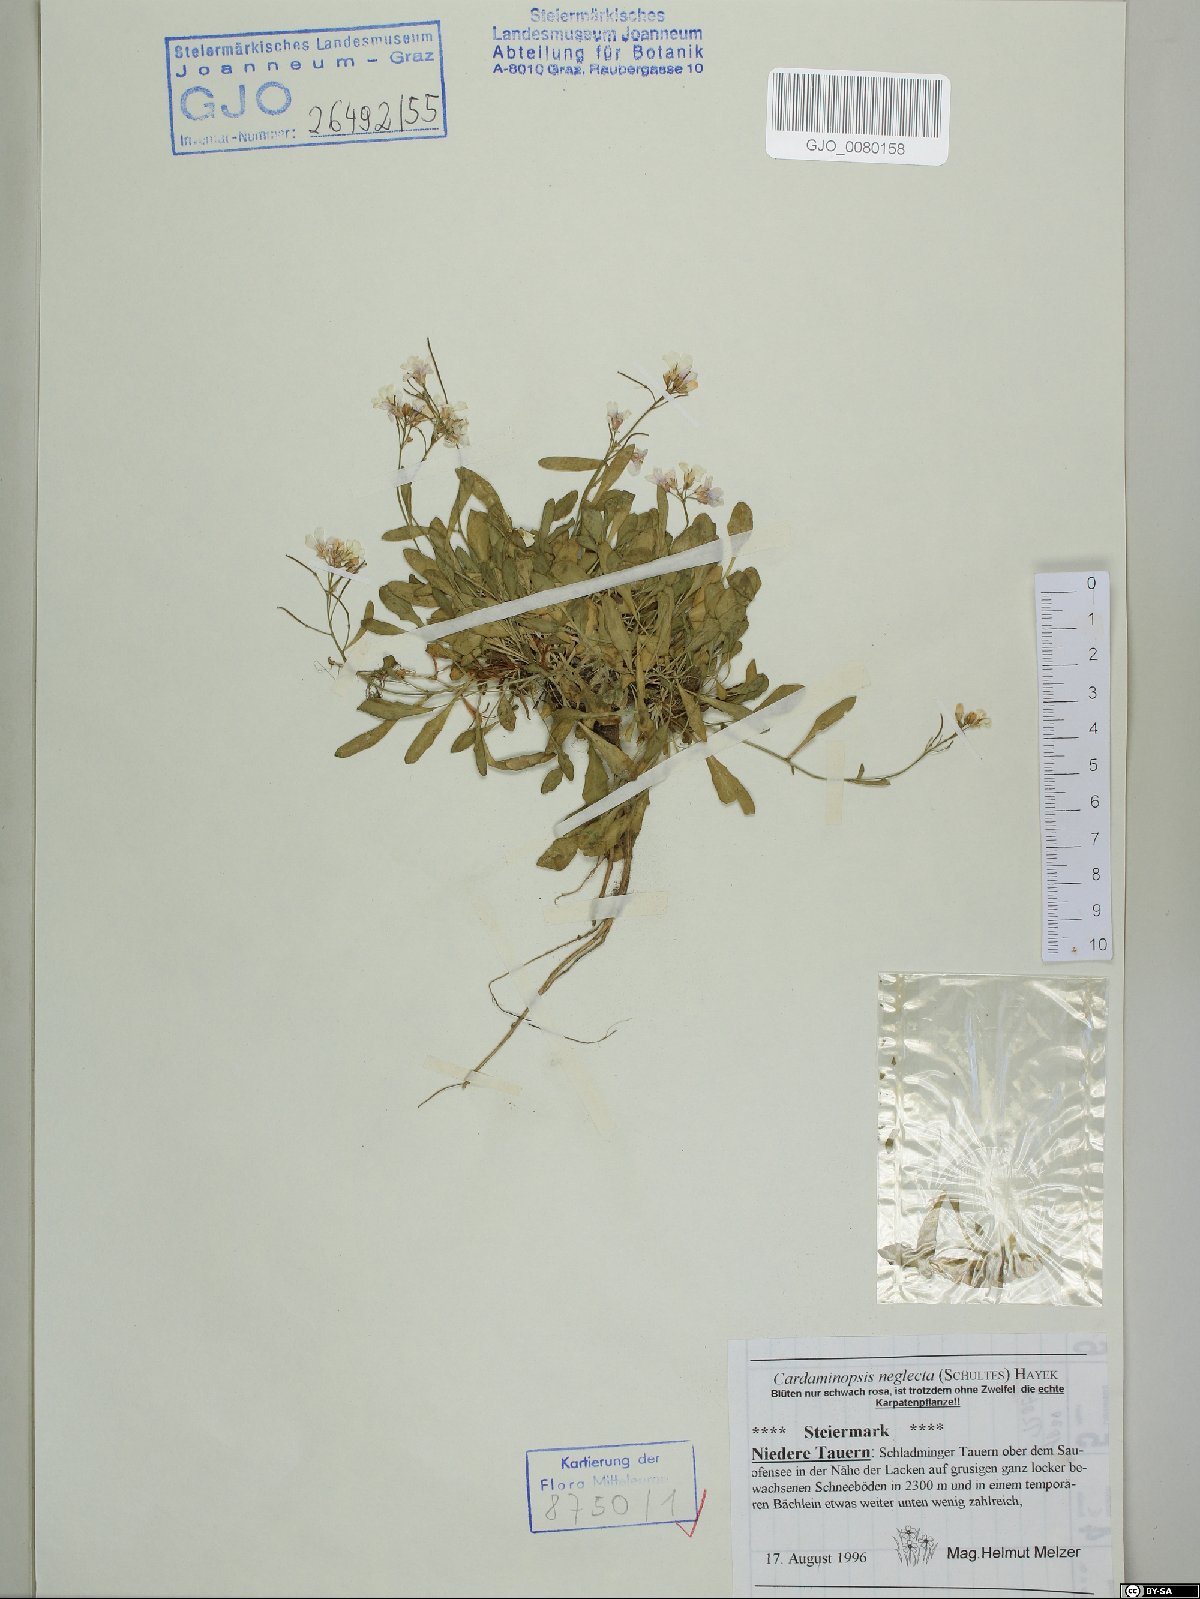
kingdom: Plantae
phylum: Tracheophyta
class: Magnoliopsida
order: Brassicales
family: Brassicaceae
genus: Arabidopsis
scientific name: Arabidopsis neglecta
